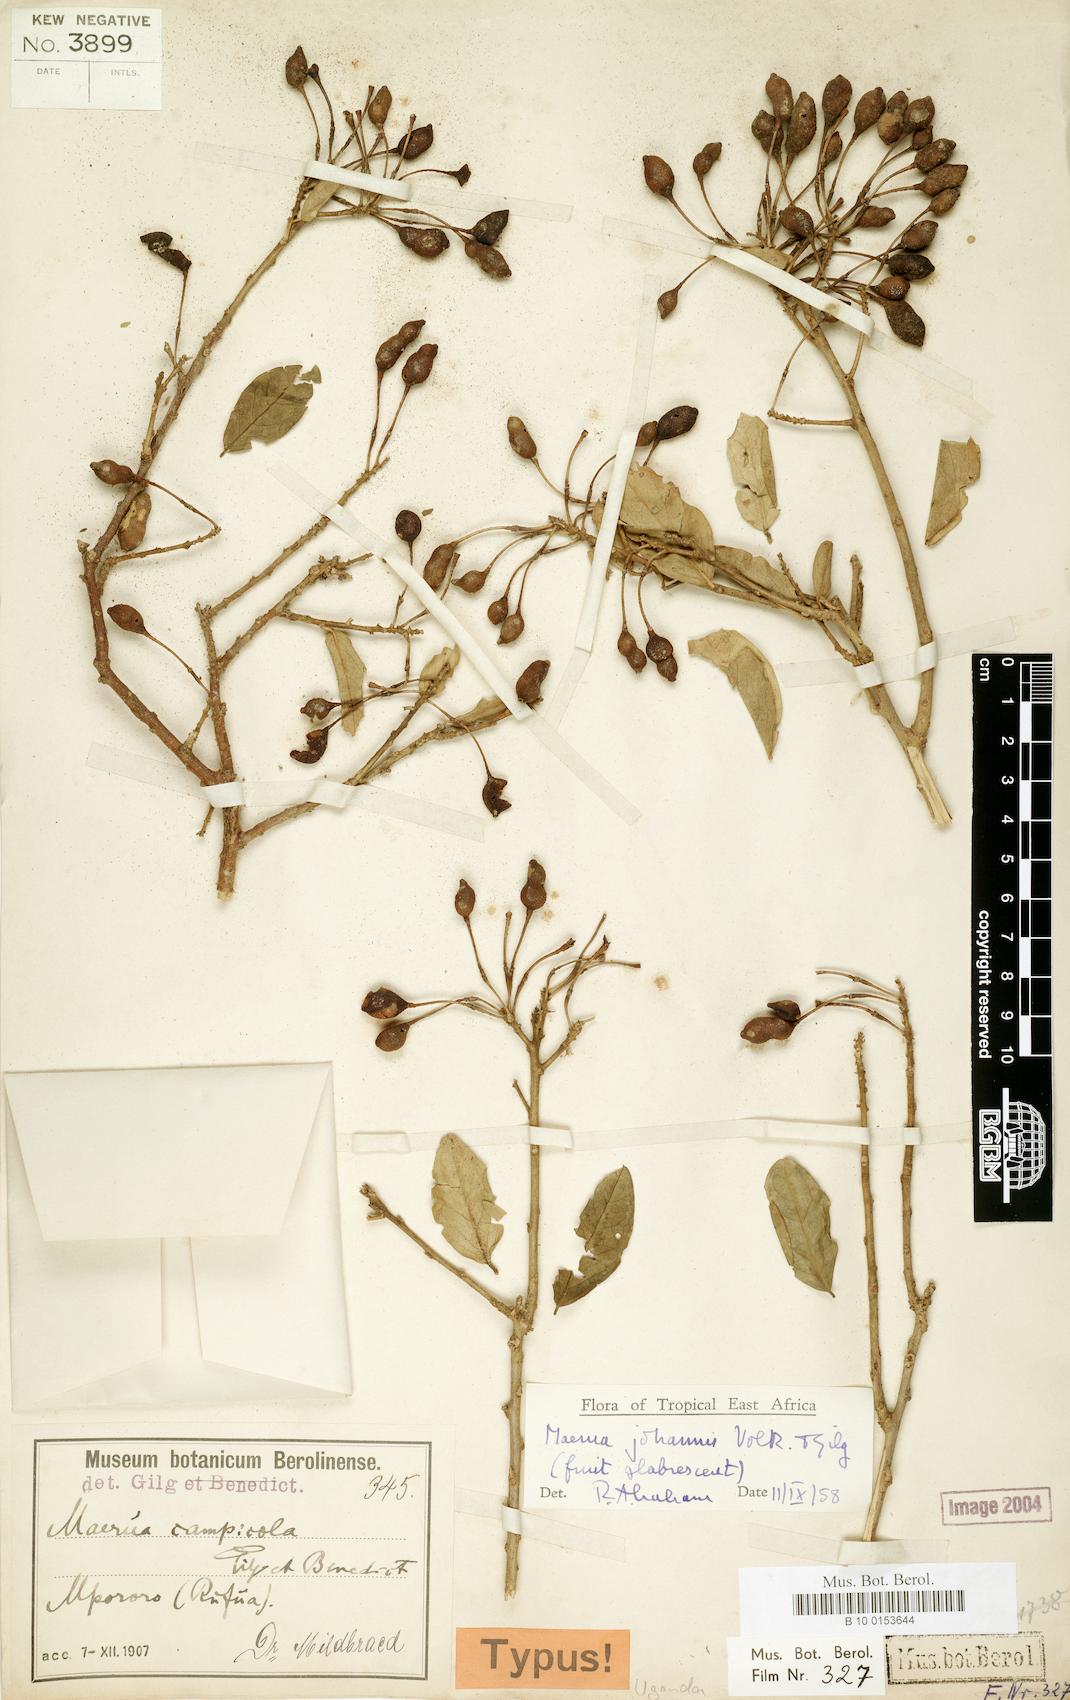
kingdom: Plantae
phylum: Tracheophyta
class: Magnoliopsida
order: Brassicales
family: Capparaceae
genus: Maerua
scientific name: Maerua triphylla
